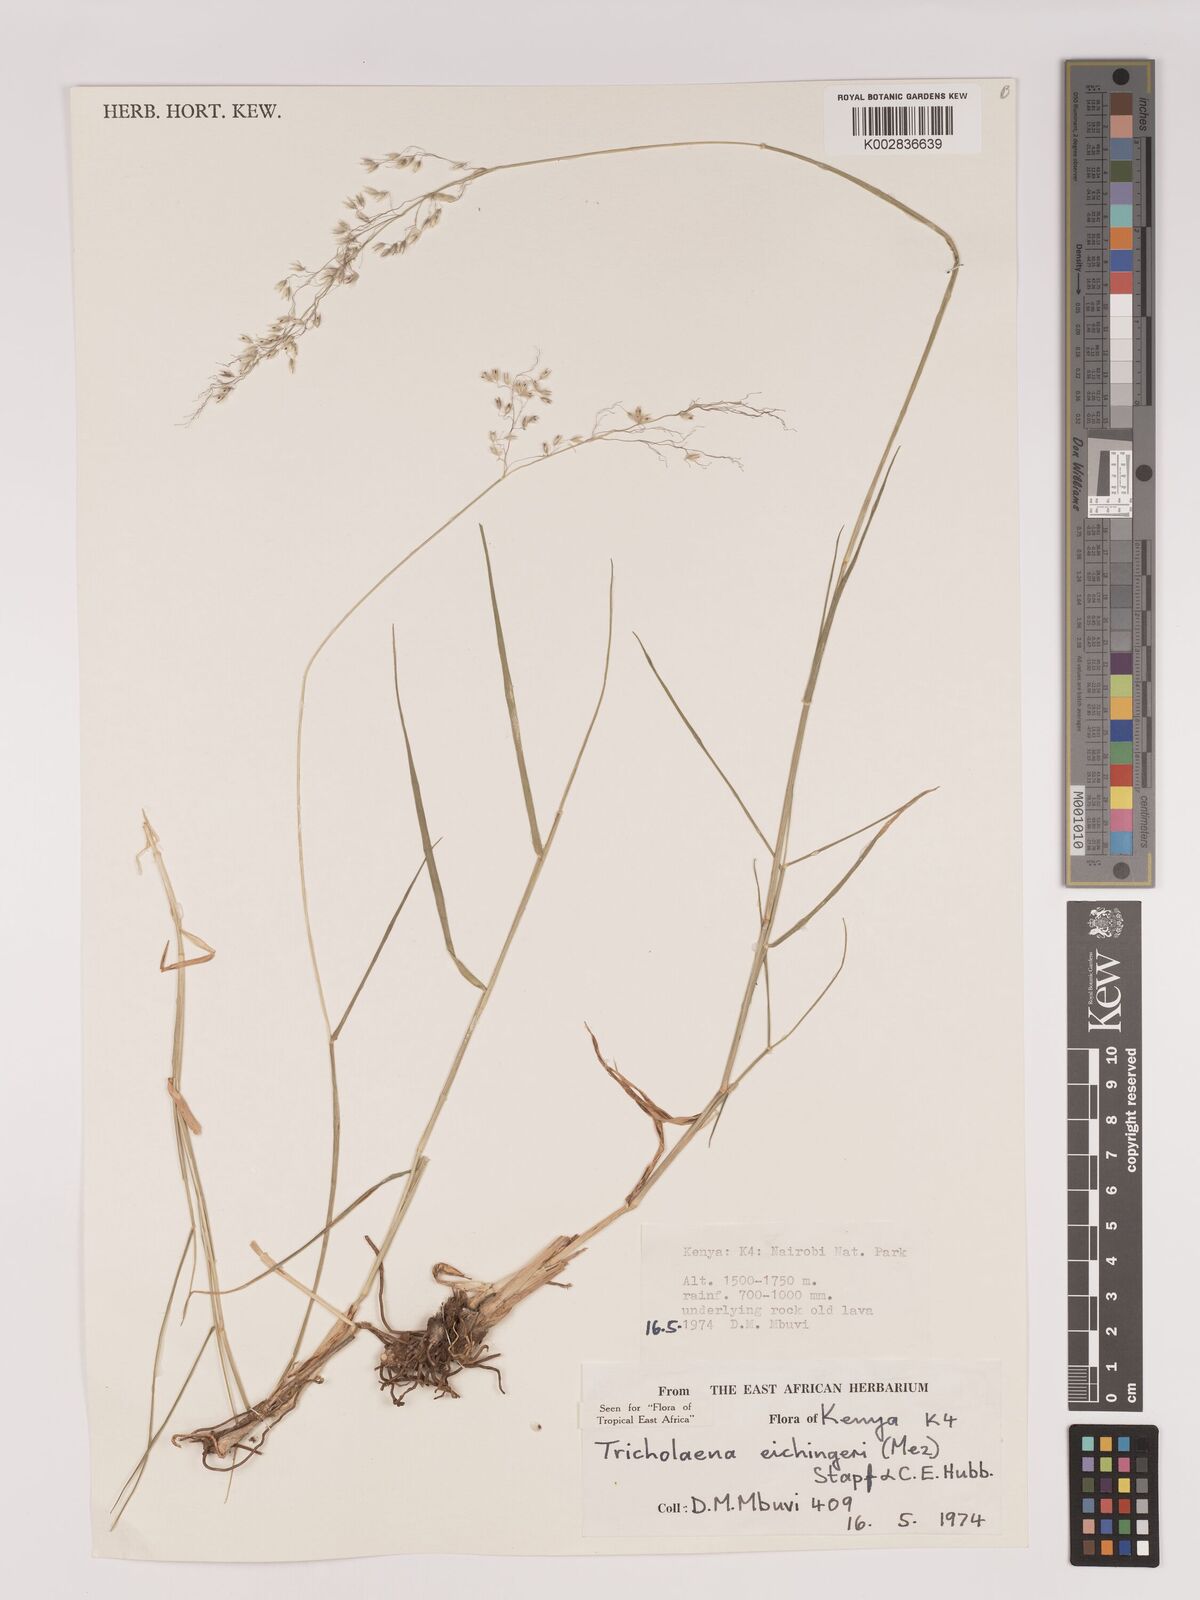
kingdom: Plantae
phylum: Tracheophyta
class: Liliopsida
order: Poales
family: Poaceae
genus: Tricholaena
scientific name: Tricholaena teneriffae
